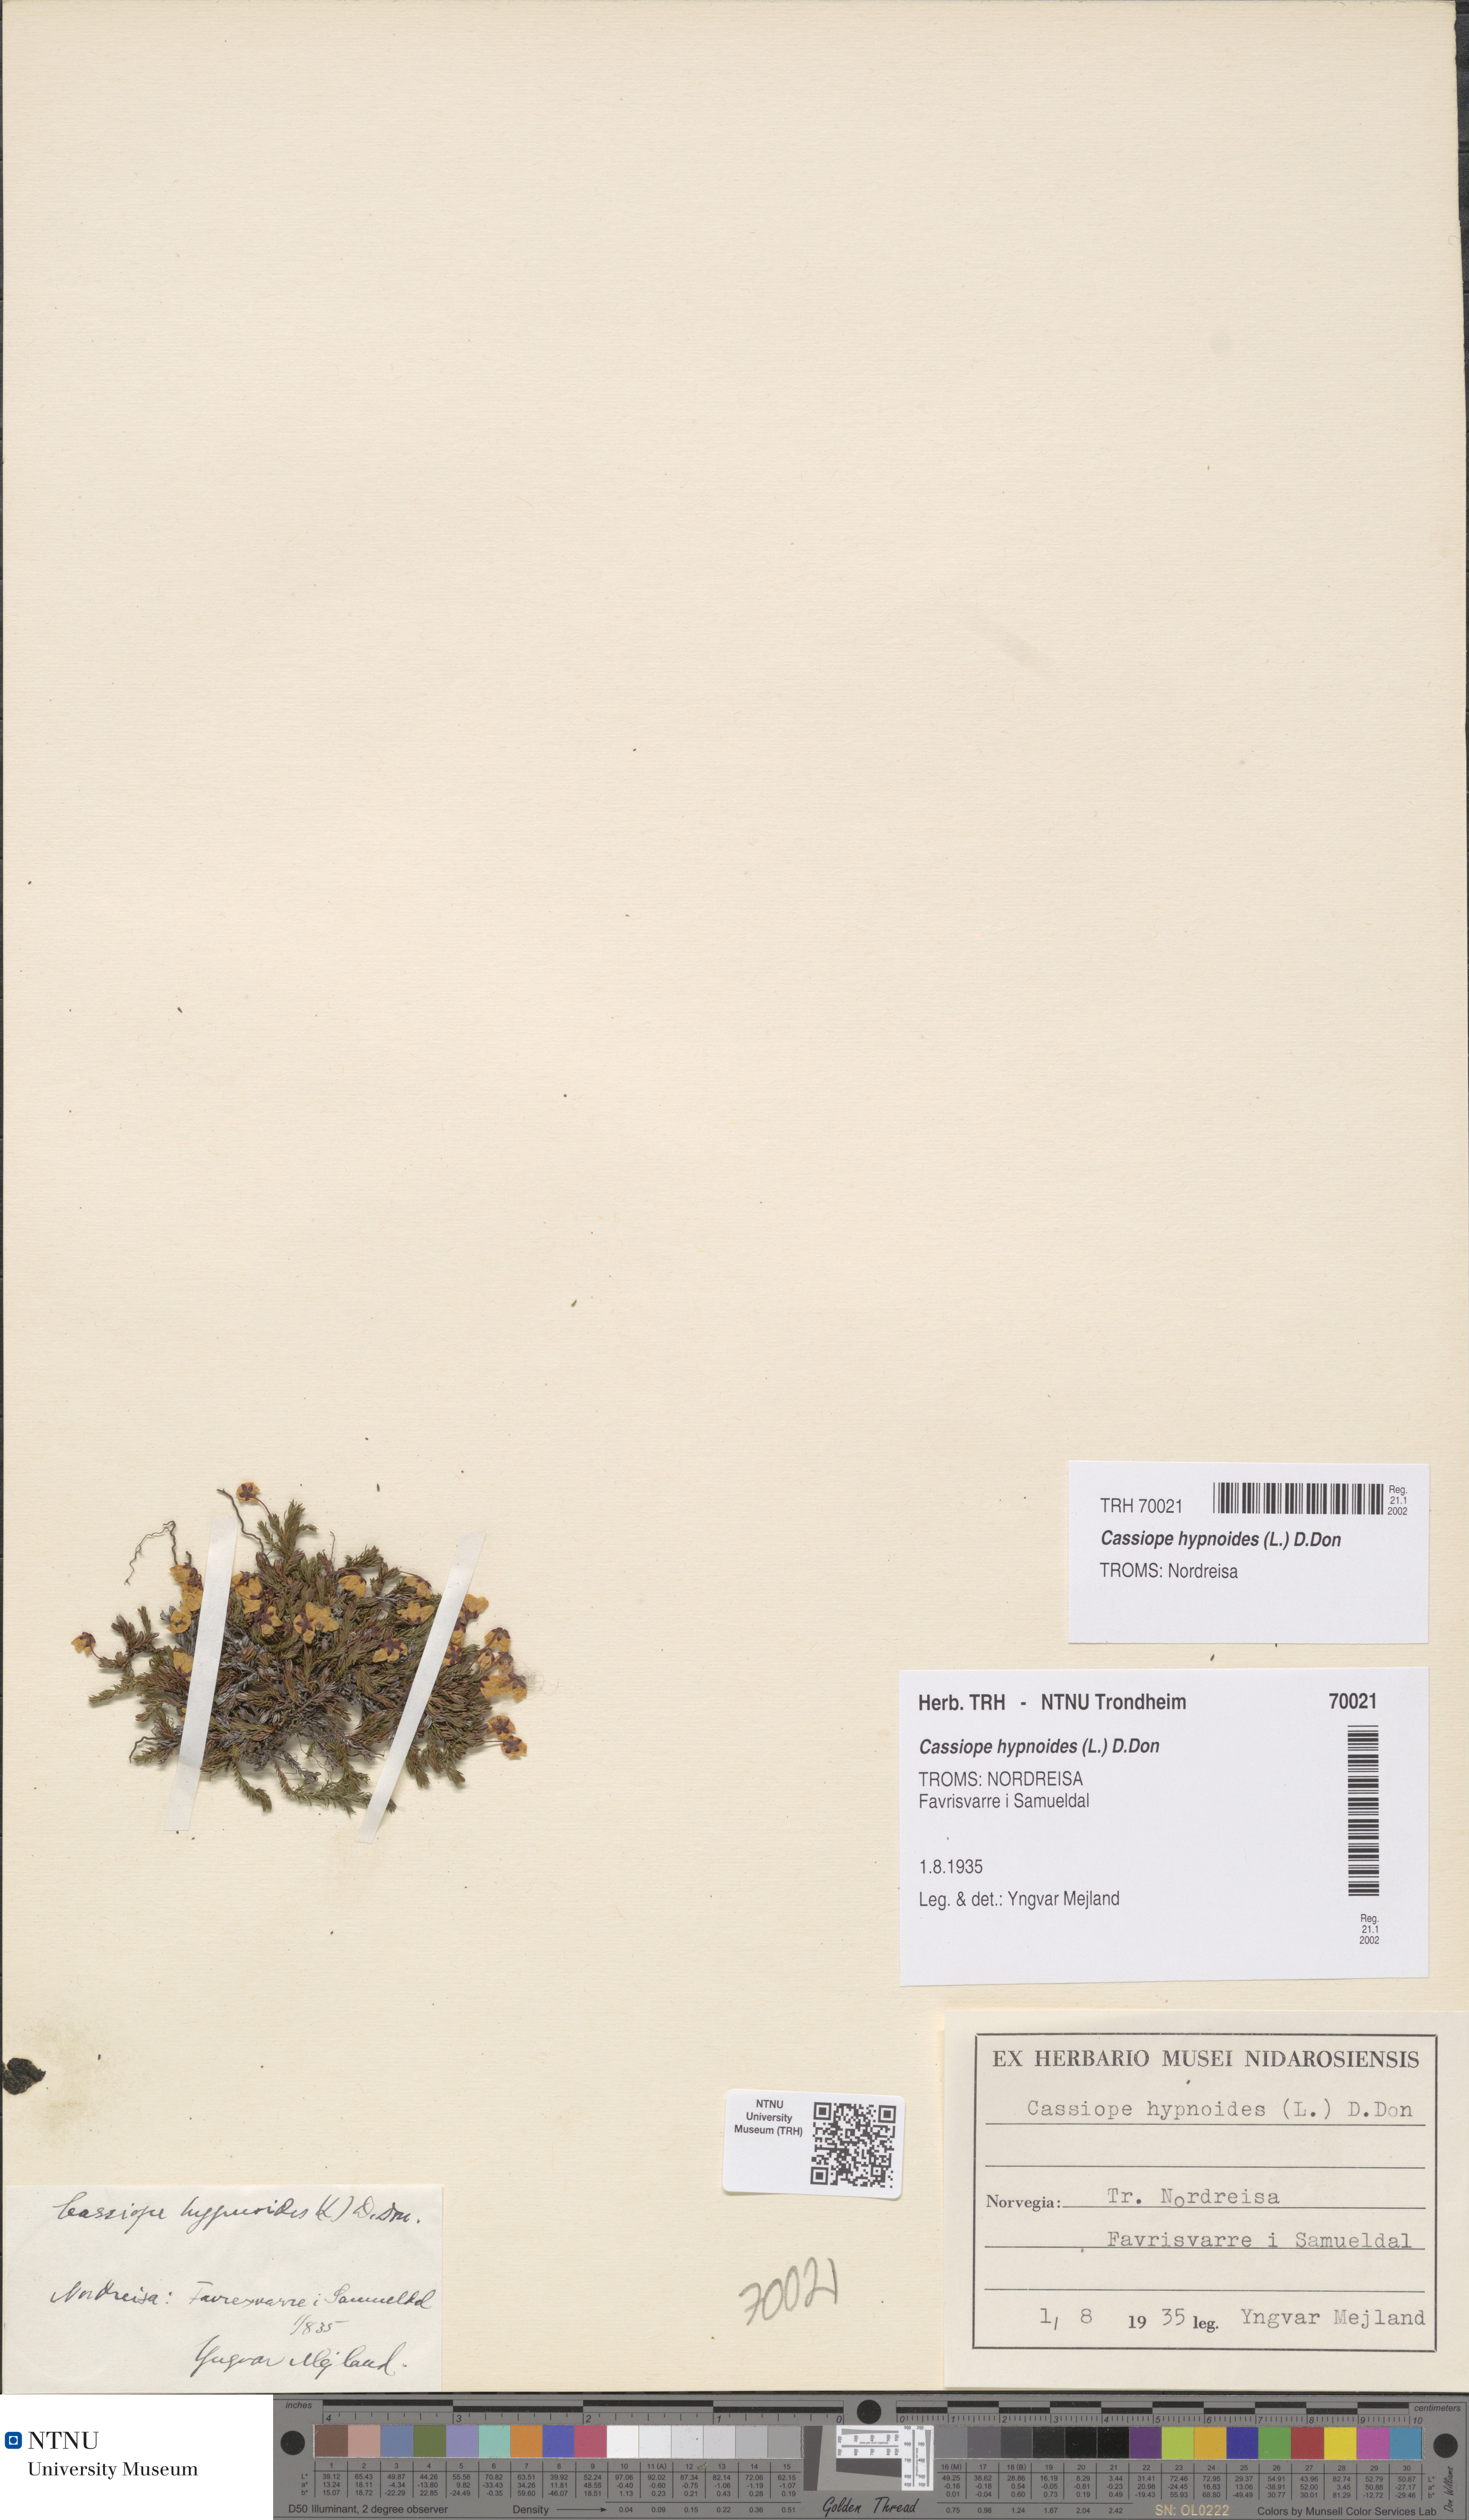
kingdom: Plantae
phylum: Tracheophyta
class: Magnoliopsida
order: Ericales
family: Ericaceae
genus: Harrimanella
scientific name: Harrimanella hypnoides
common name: Moss bell heather
